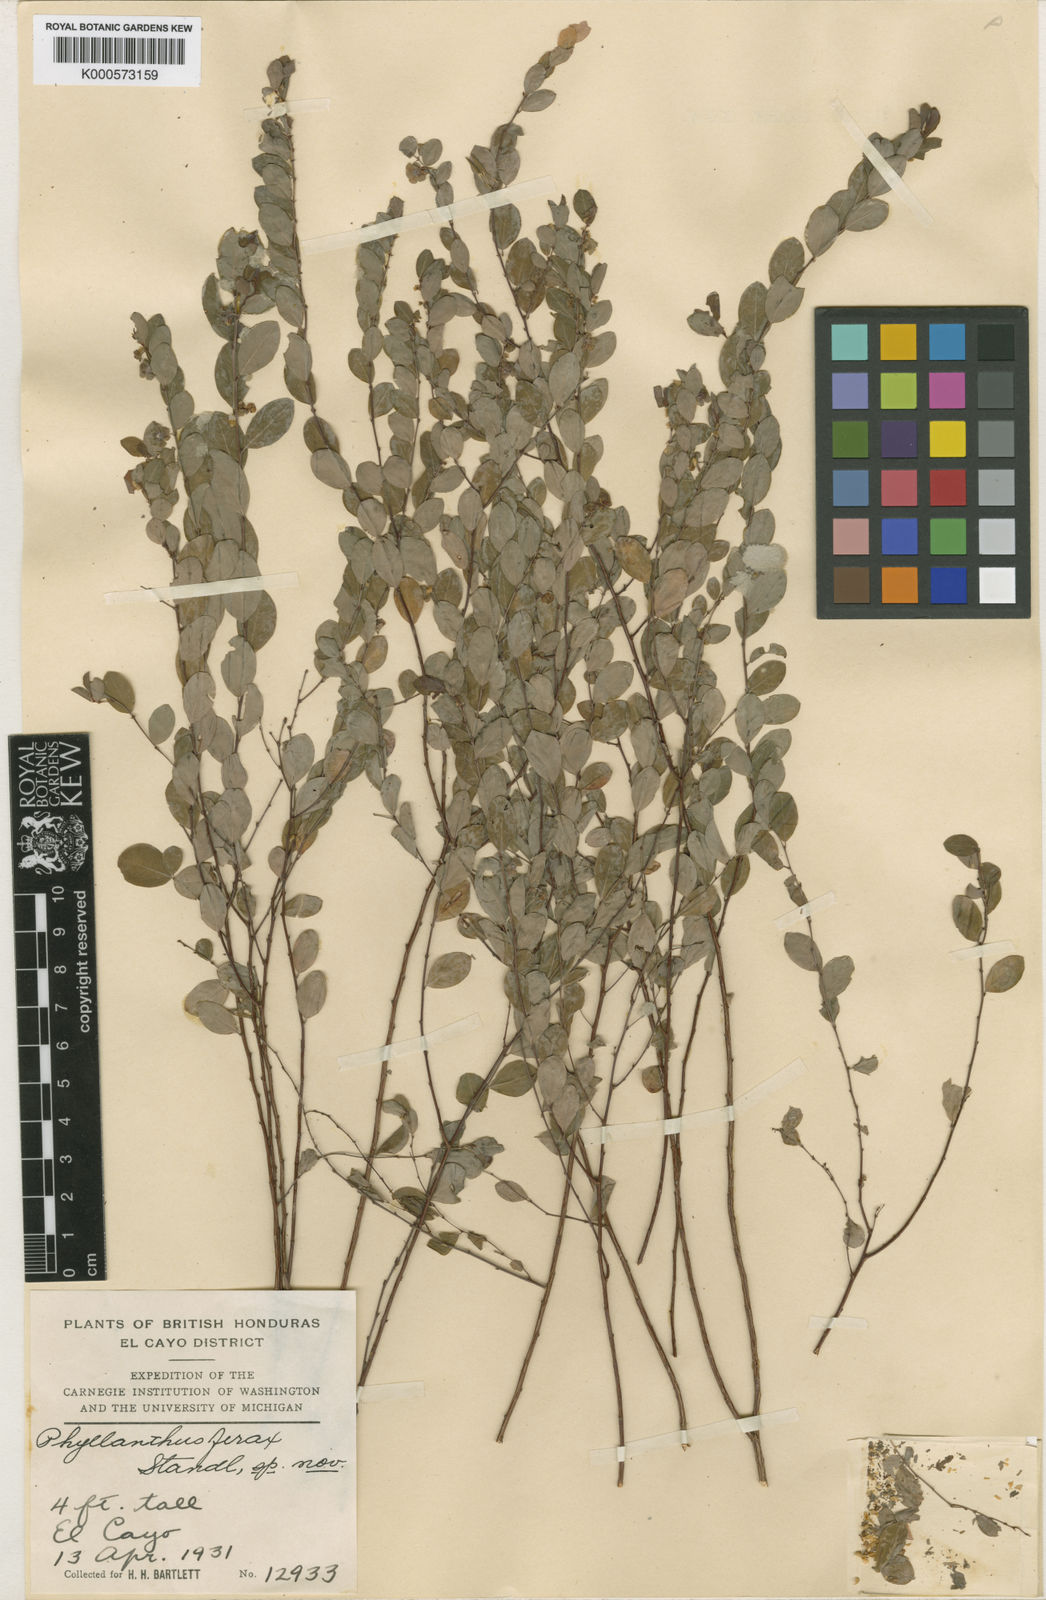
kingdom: Plantae
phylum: Tracheophyta
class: Magnoliopsida
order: Malpighiales
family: Phyllanthaceae
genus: Phyllanthus
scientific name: Phyllanthus liebmannianus
